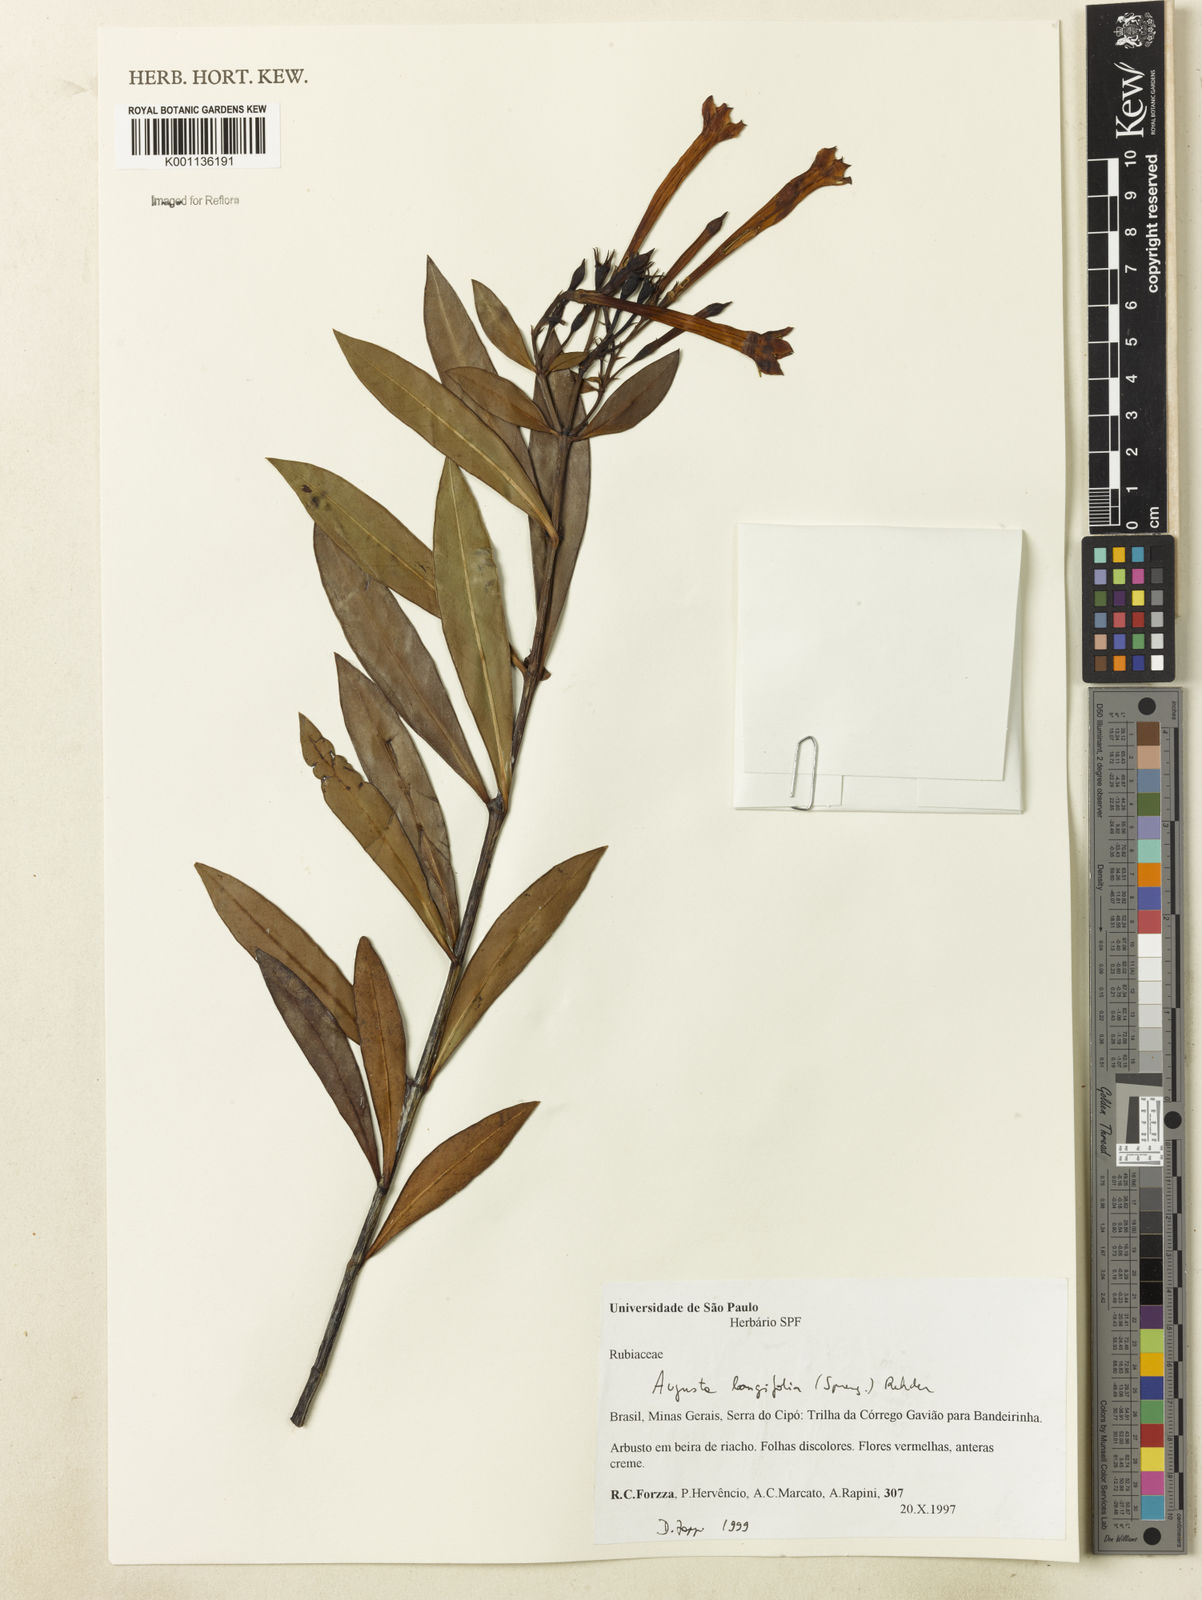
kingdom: Plantae
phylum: Tracheophyta
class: Magnoliopsida
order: Gentianales
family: Rubiaceae
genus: Augusta
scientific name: Augusta longifolia
